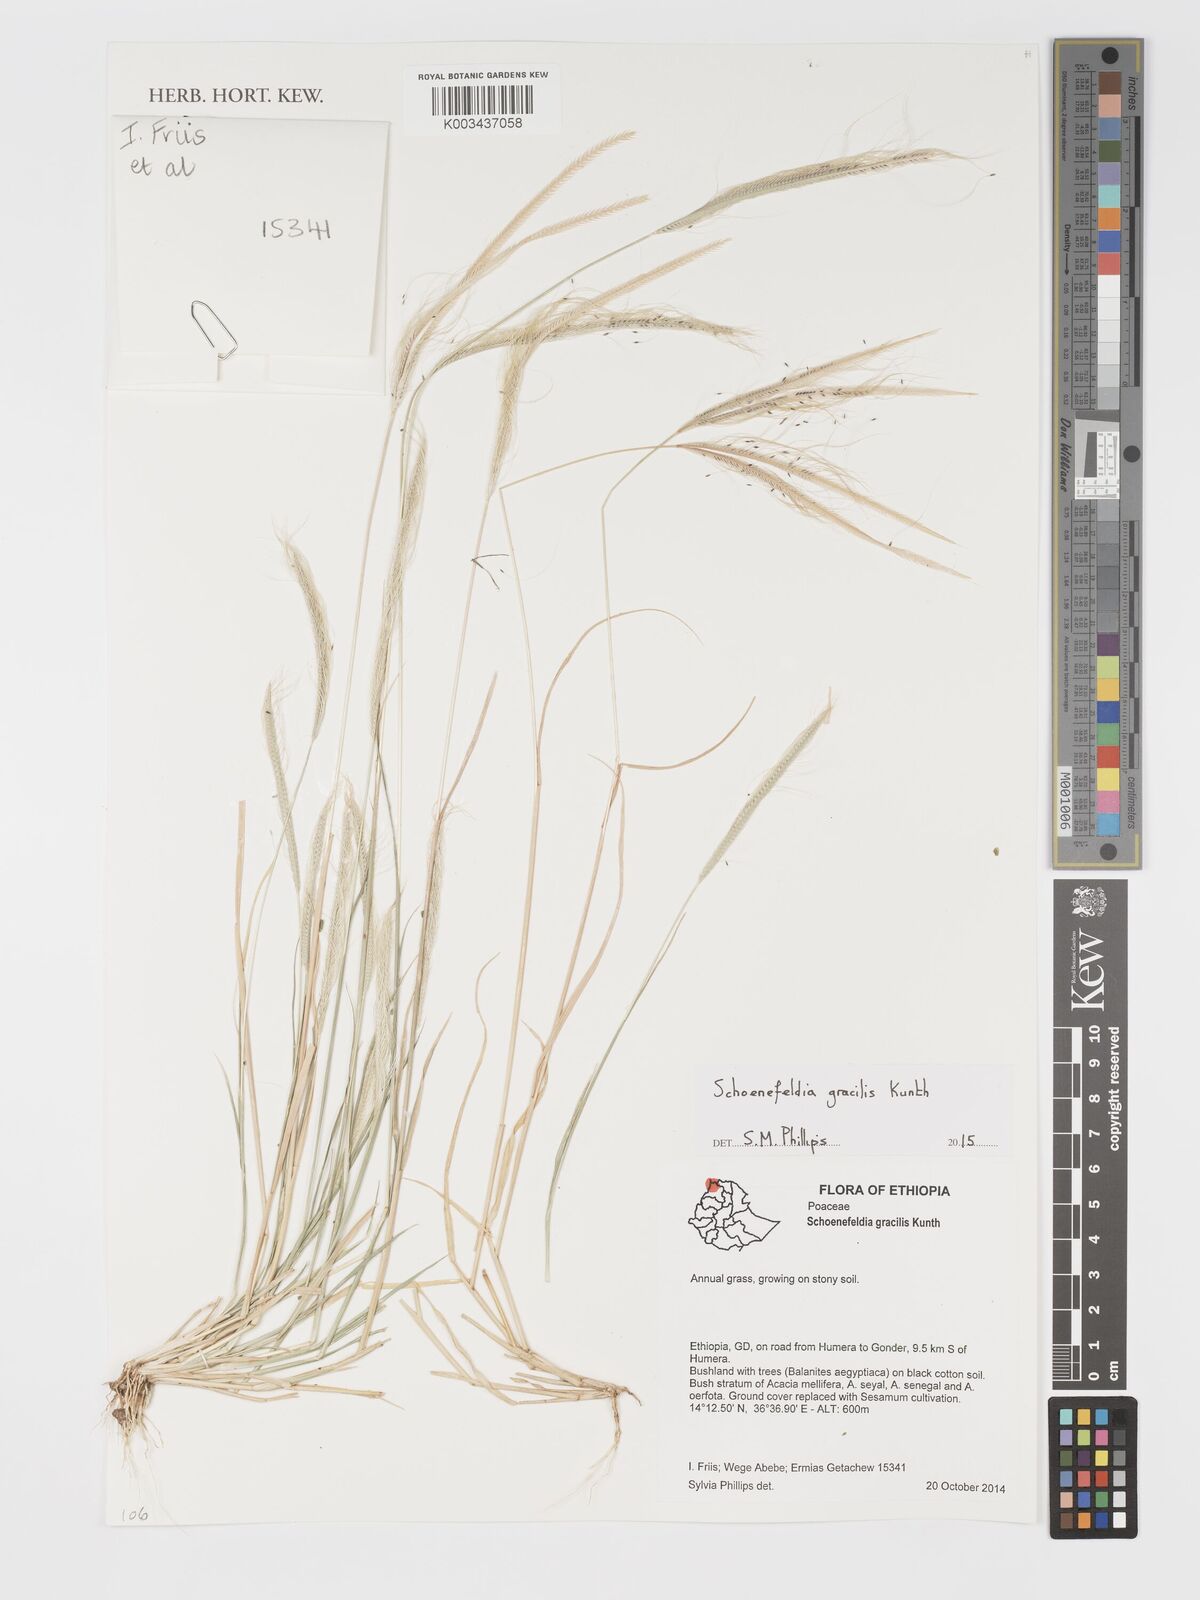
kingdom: Plantae
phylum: Tracheophyta
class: Liliopsida
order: Poales
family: Poaceae
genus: Schoenefeldia
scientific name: Schoenefeldia gracilis
